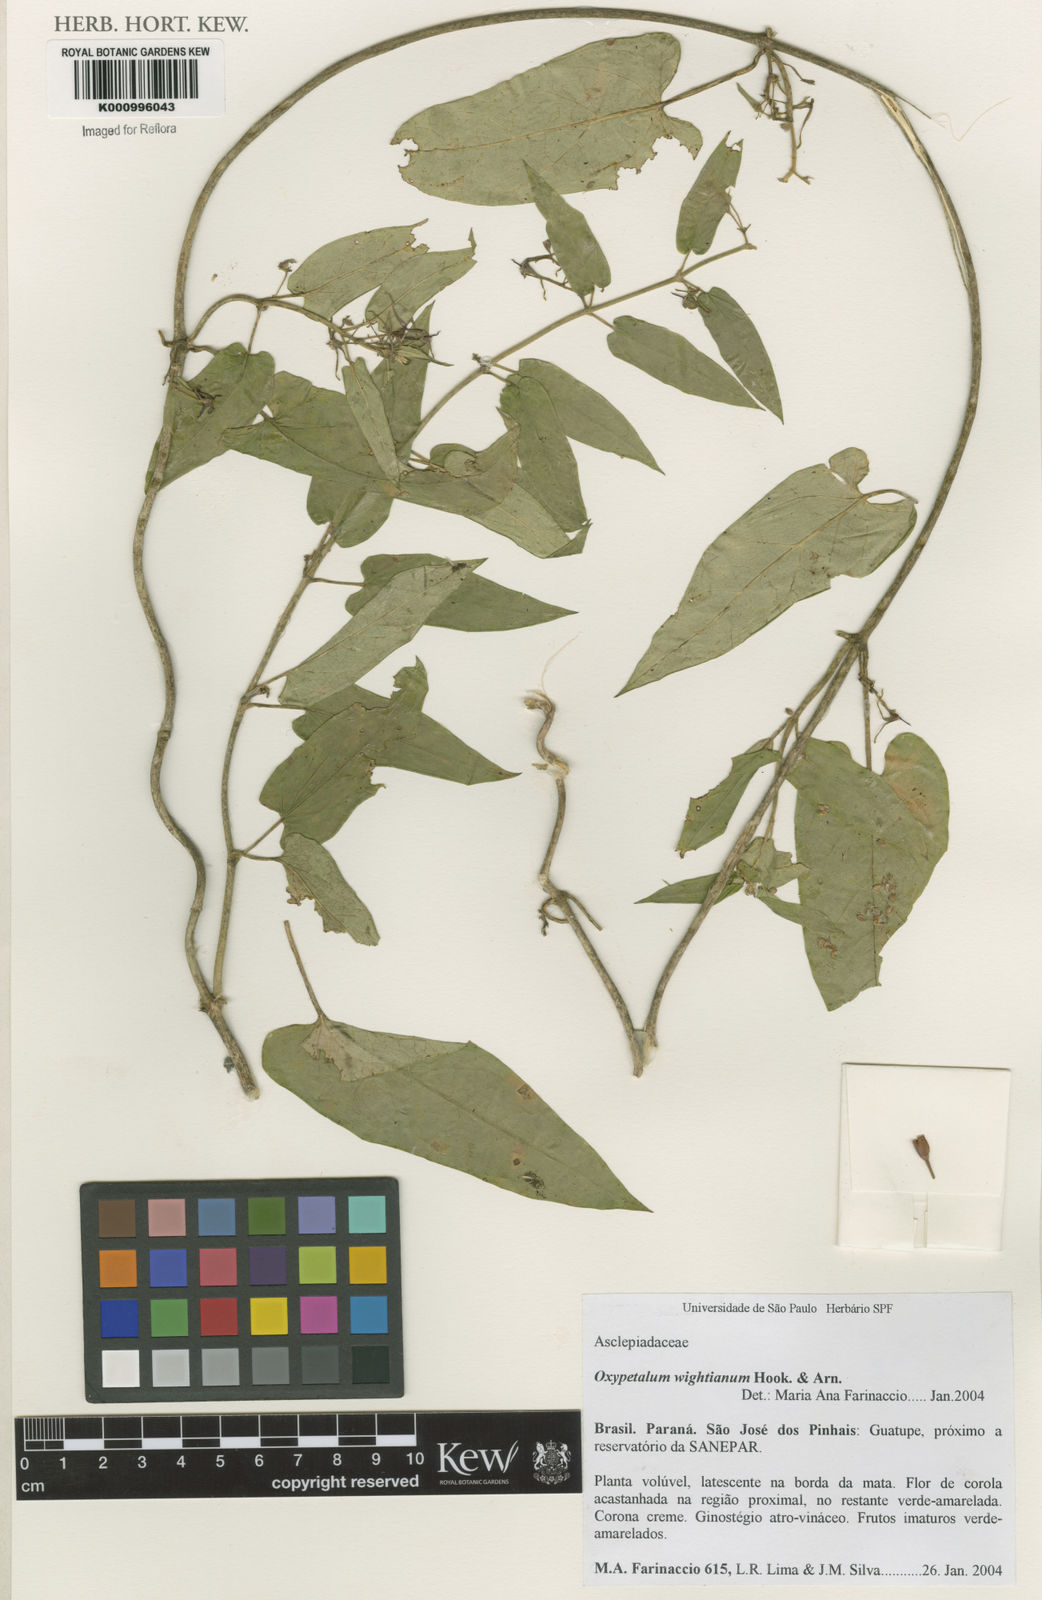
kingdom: Plantae
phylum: Tracheophyta
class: Magnoliopsida
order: Gentianales
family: Apocynaceae
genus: Oxypetalum
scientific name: Oxypetalum wightianum
